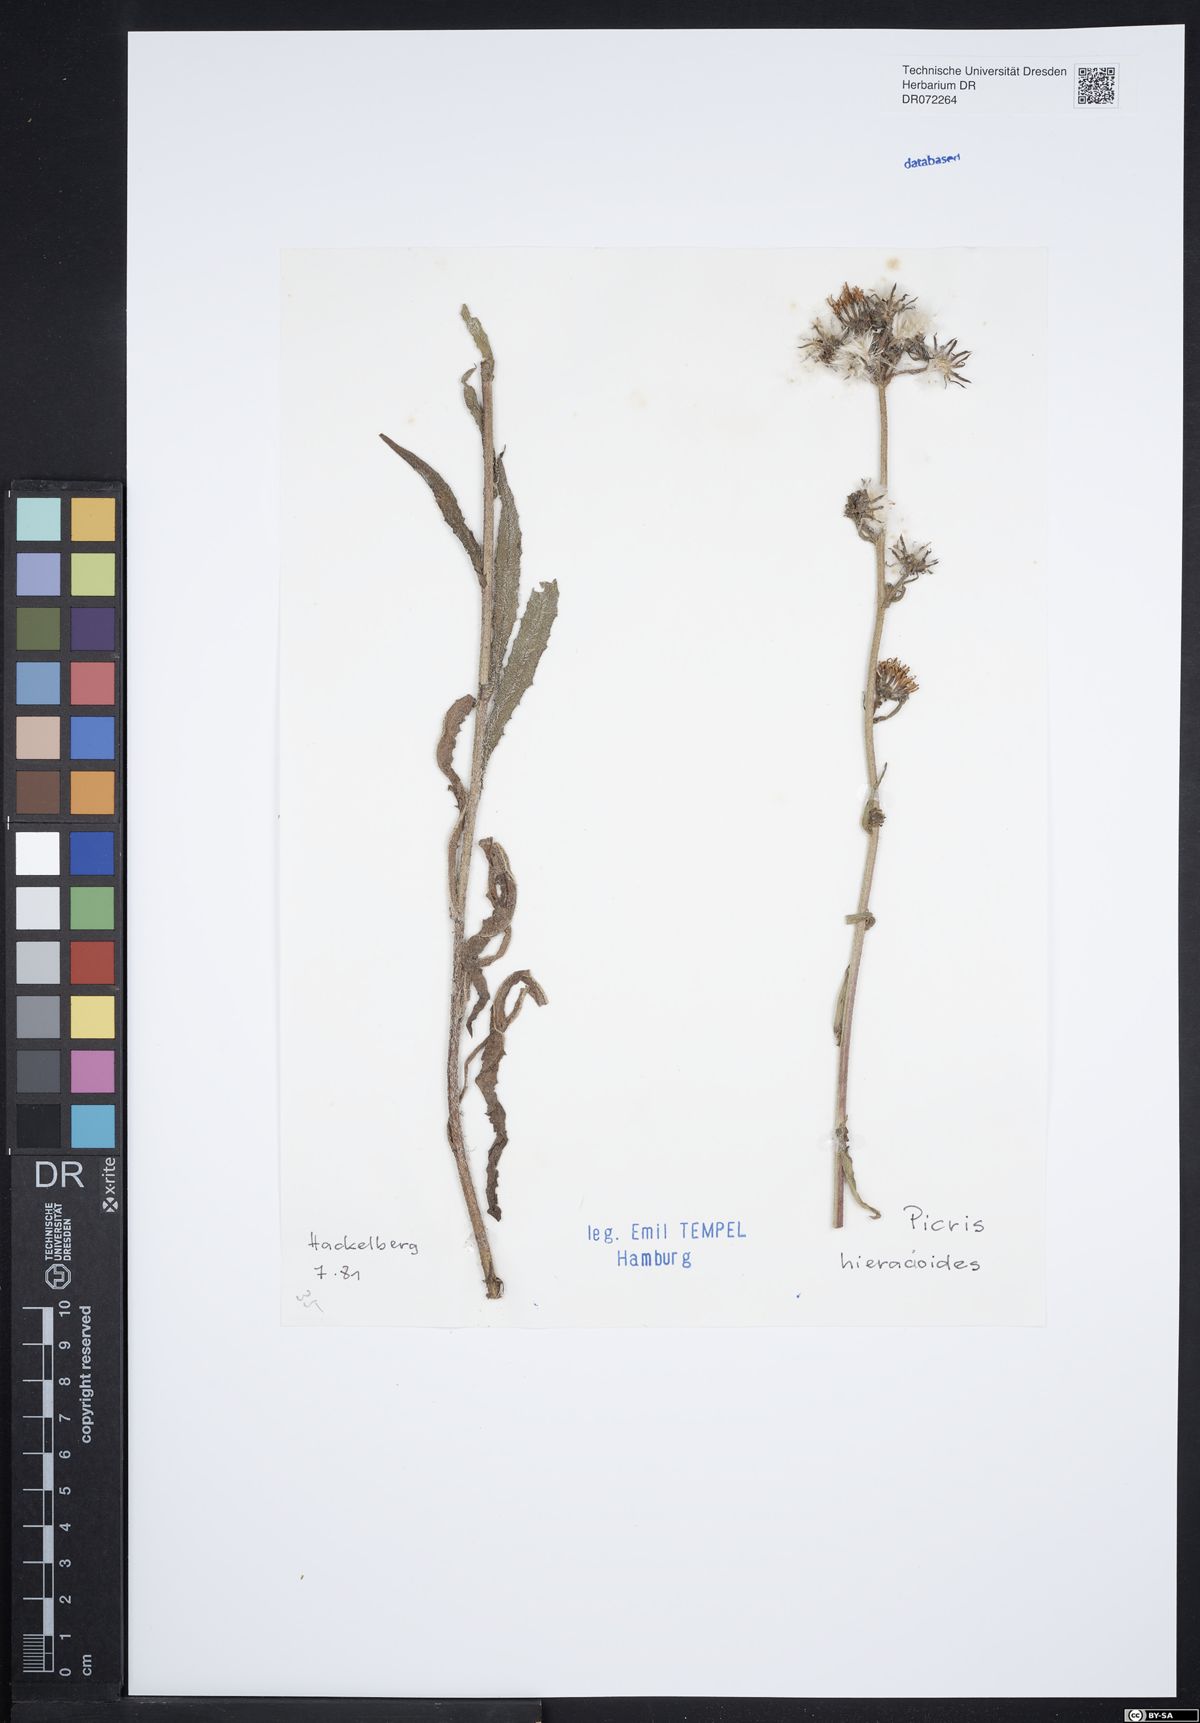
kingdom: Plantae
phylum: Tracheophyta
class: Magnoliopsida
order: Asterales
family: Asteraceae
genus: Picris
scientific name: Picris hieracioides
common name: Hawkweed oxtongue
